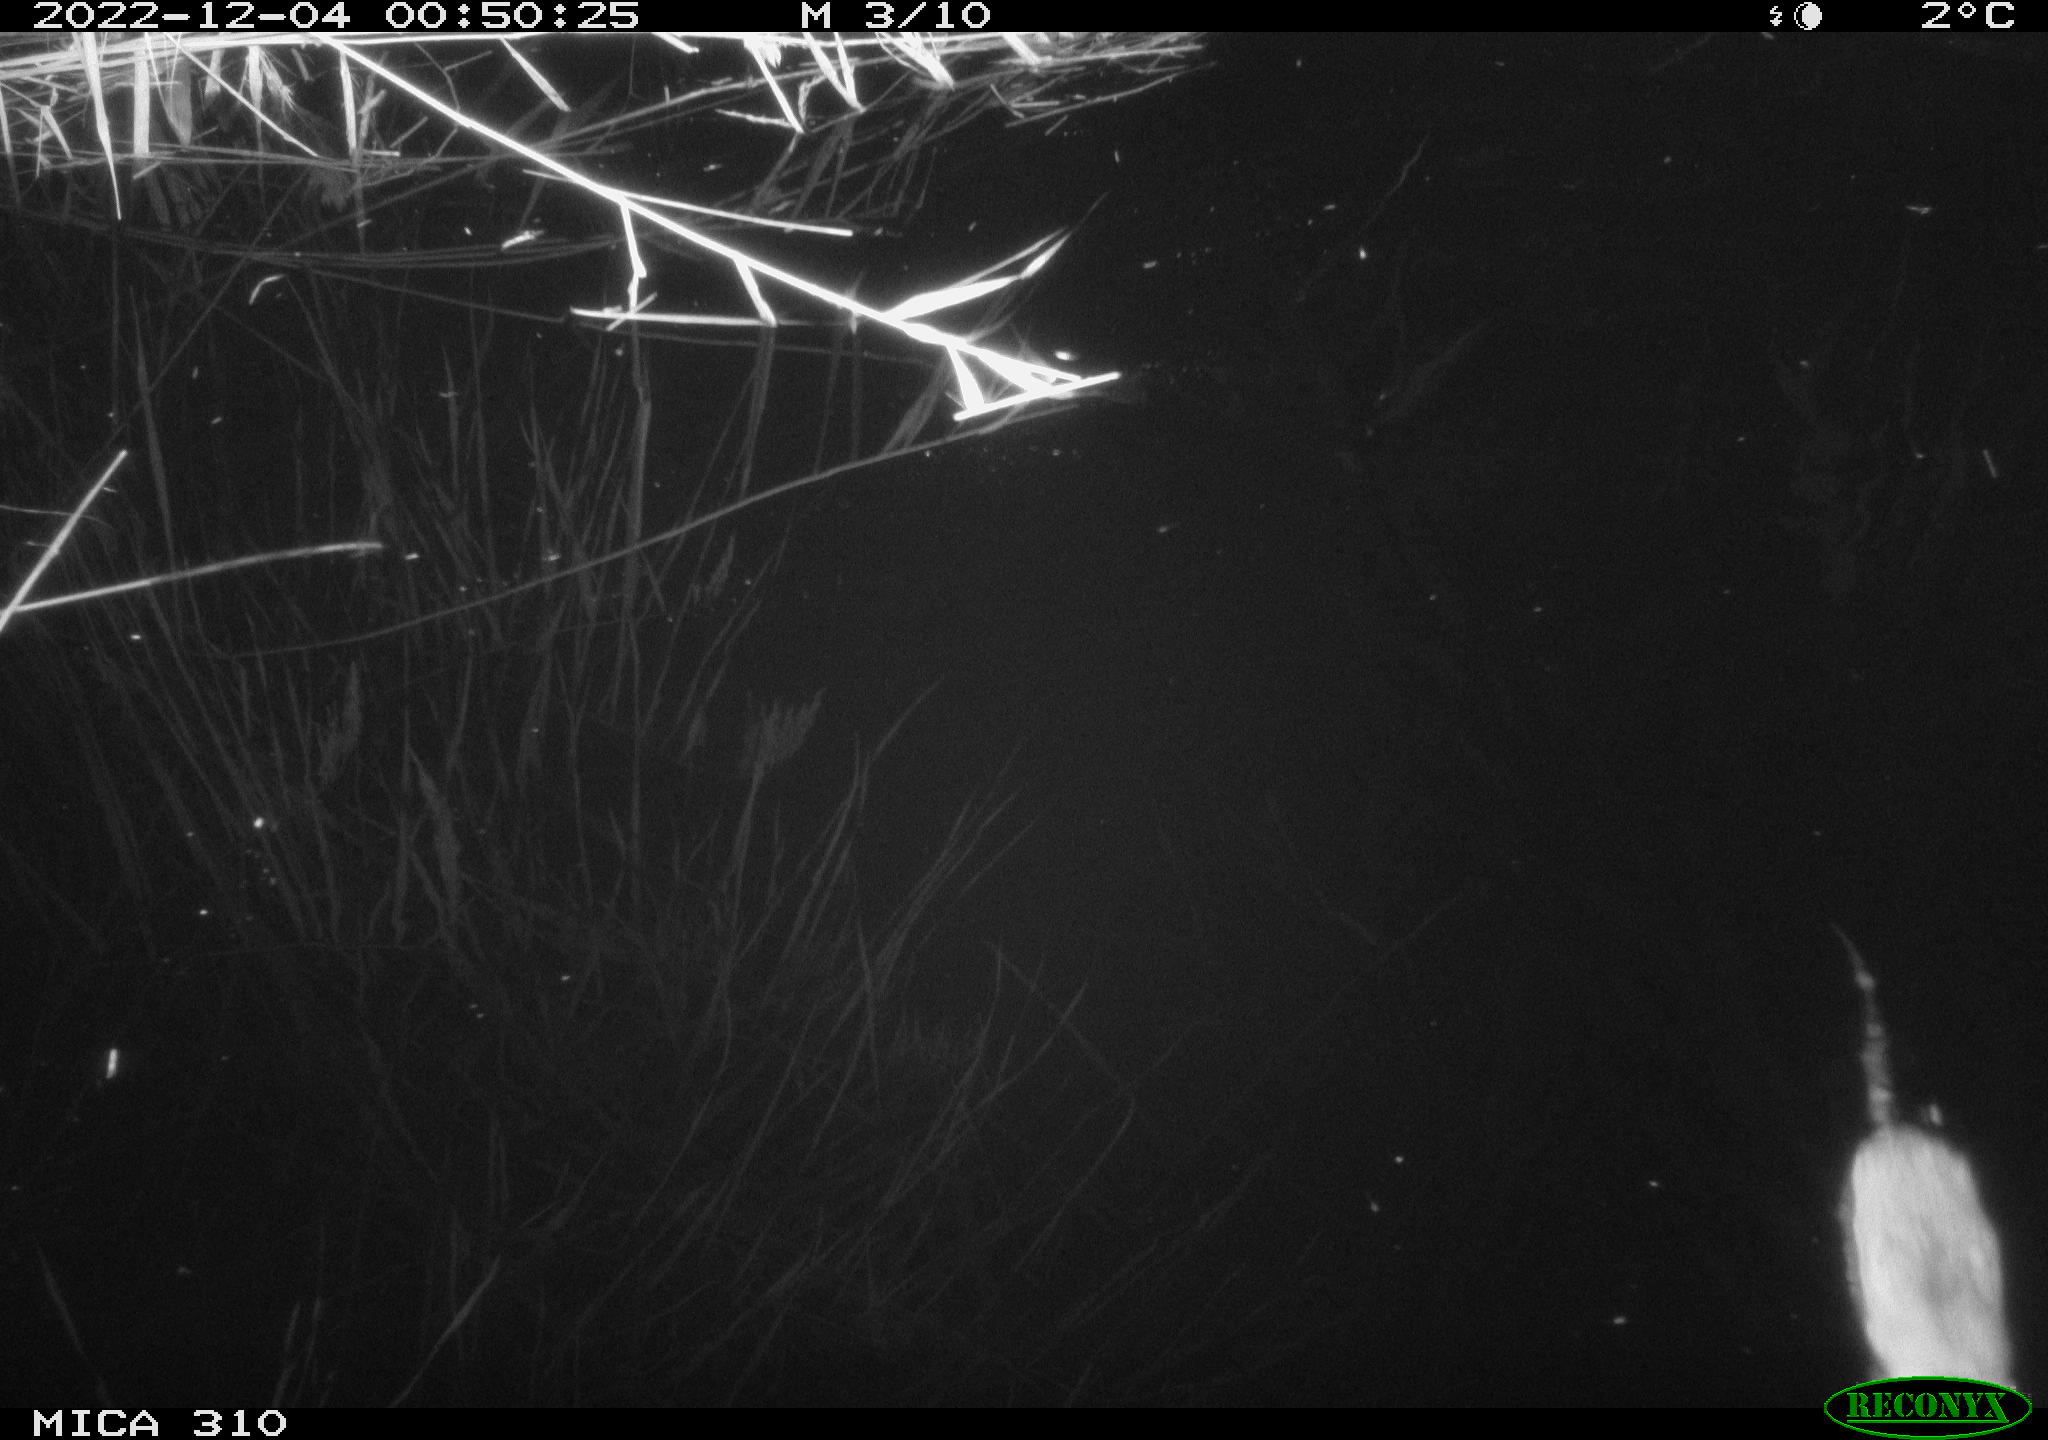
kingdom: Animalia
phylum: Chordata
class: Mammalia
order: Rodentia
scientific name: Rodentia
